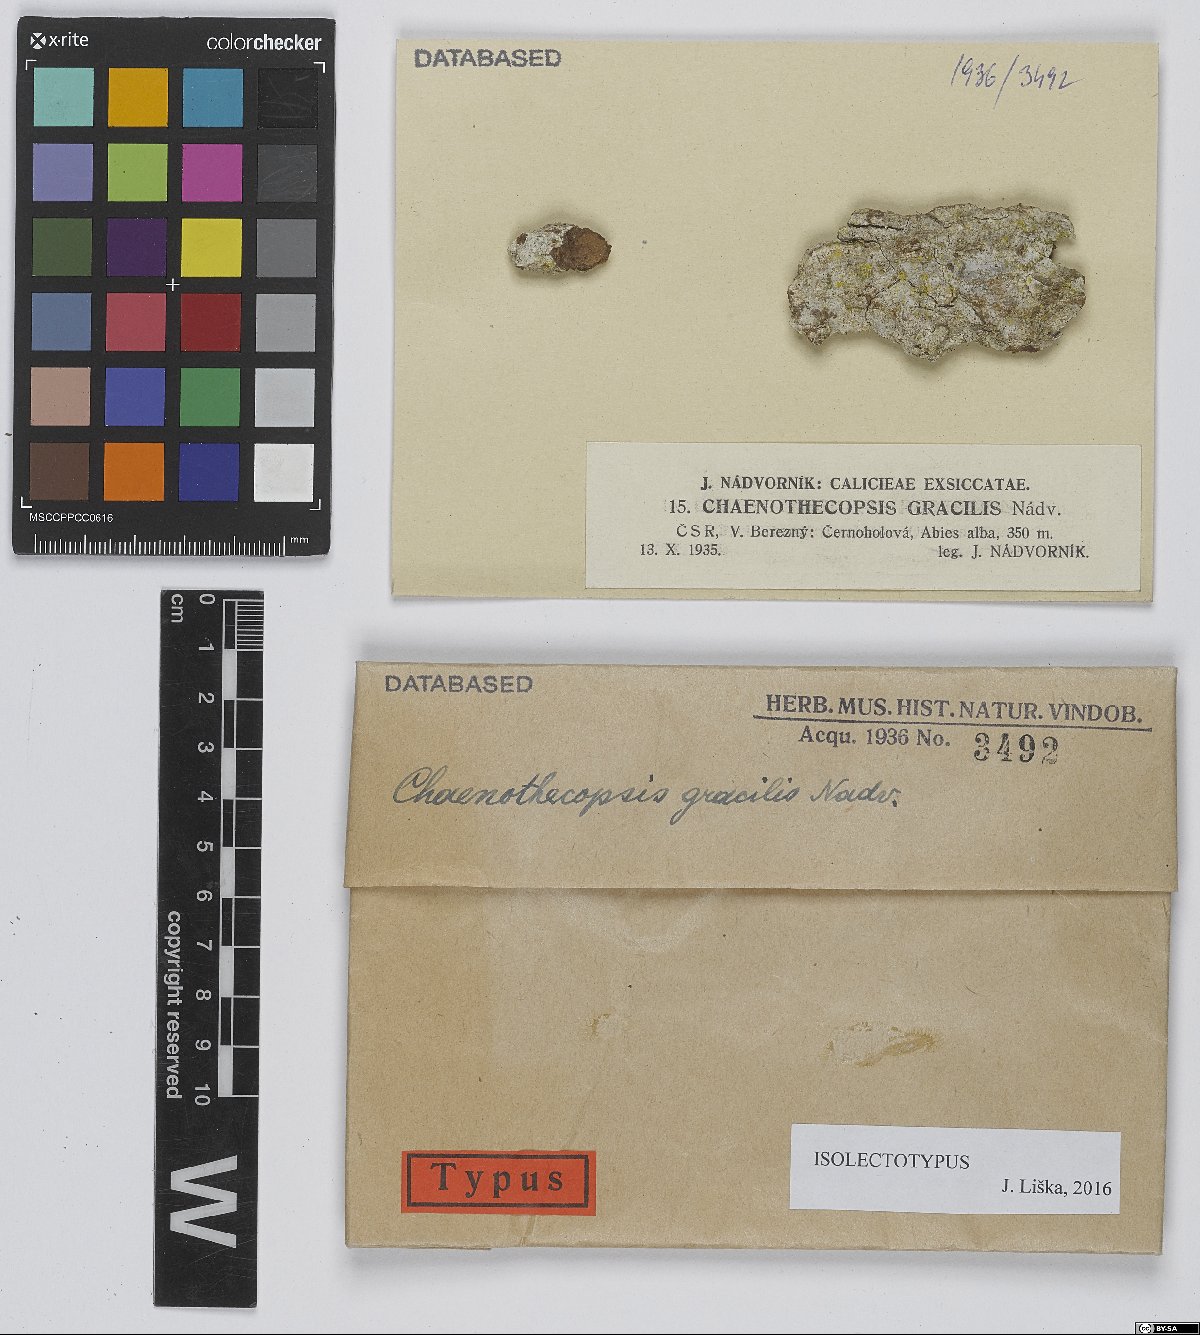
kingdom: Fungi
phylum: Ascomycota
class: Eurotiomycetes
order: Mycocaliciales
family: Mycocaliciaceae
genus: Chaenothecopsis
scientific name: Chaenothecopsis
